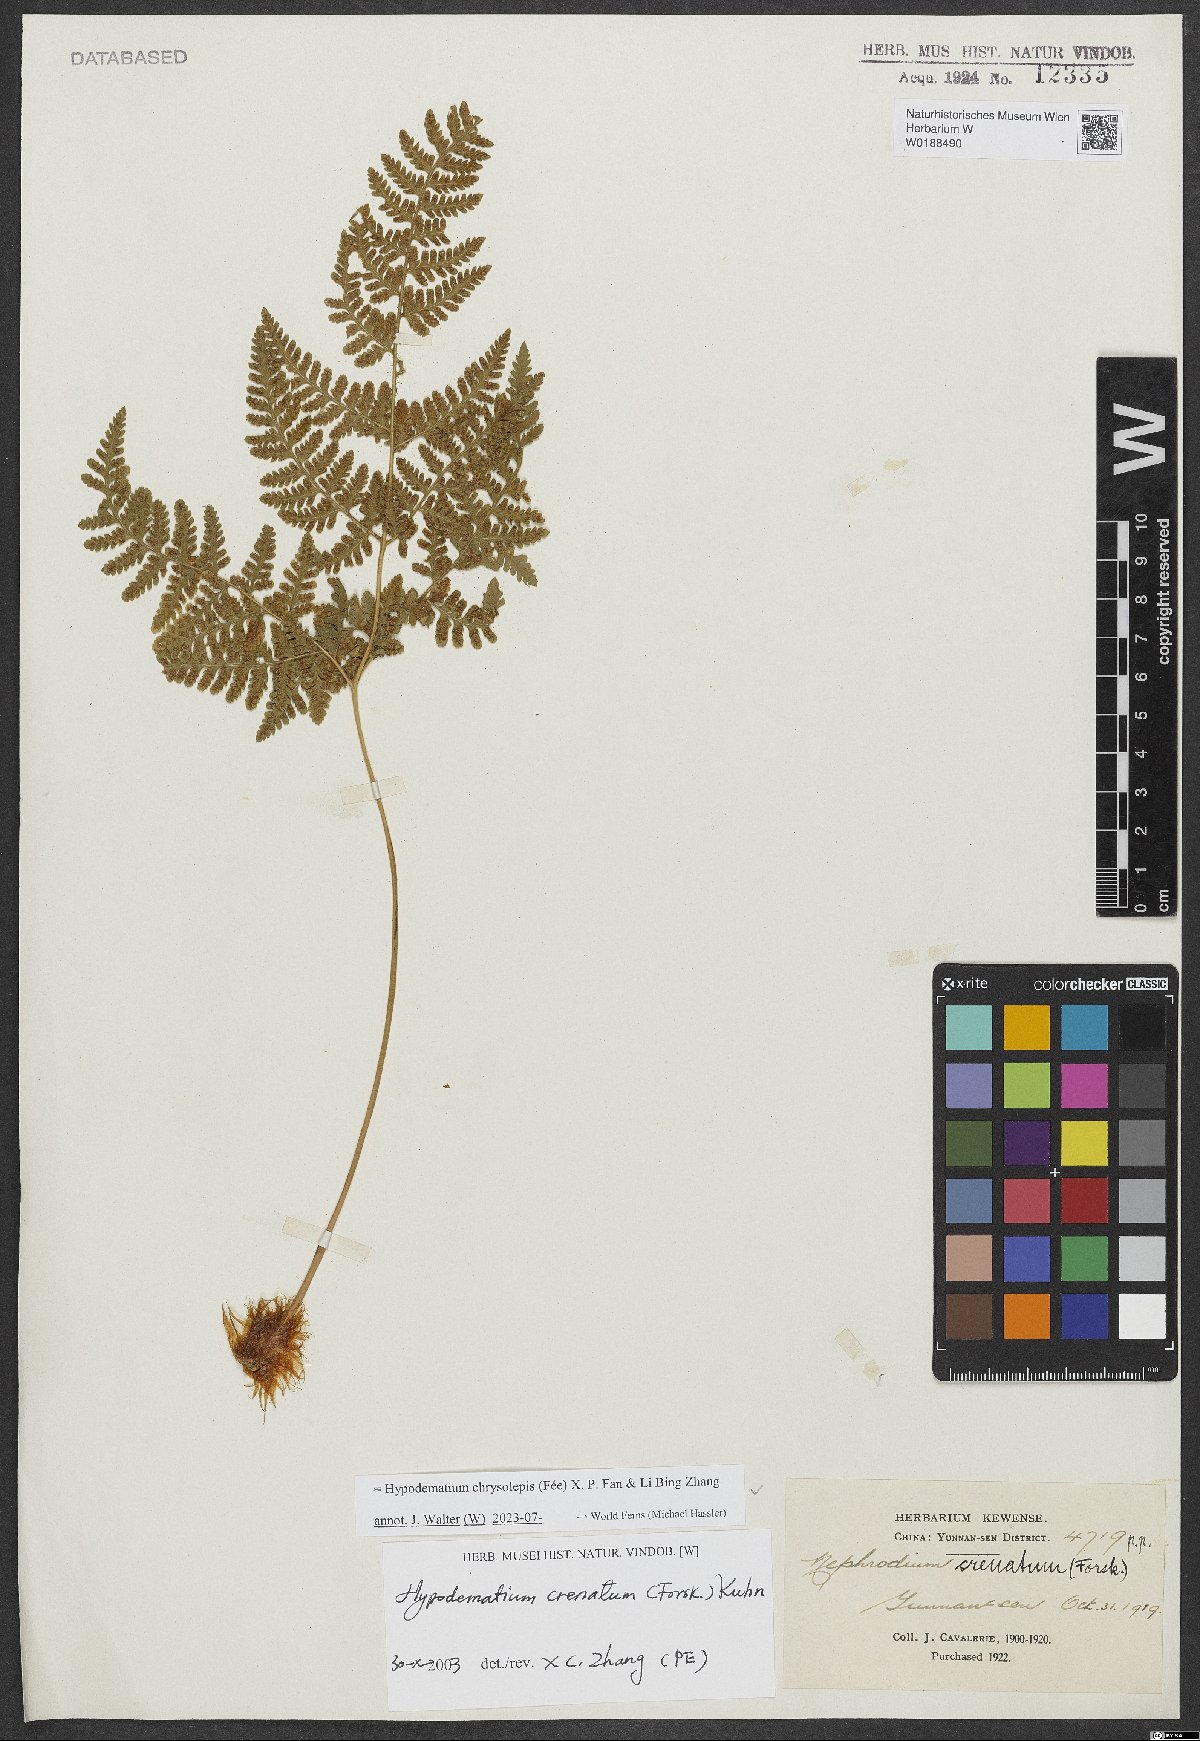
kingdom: Plantae
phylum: Tracheophyta
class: Polypodiopsida
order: Polypodiales
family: Hypodematiaceae
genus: Hypodematium
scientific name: Hypodematium chrysolepis
